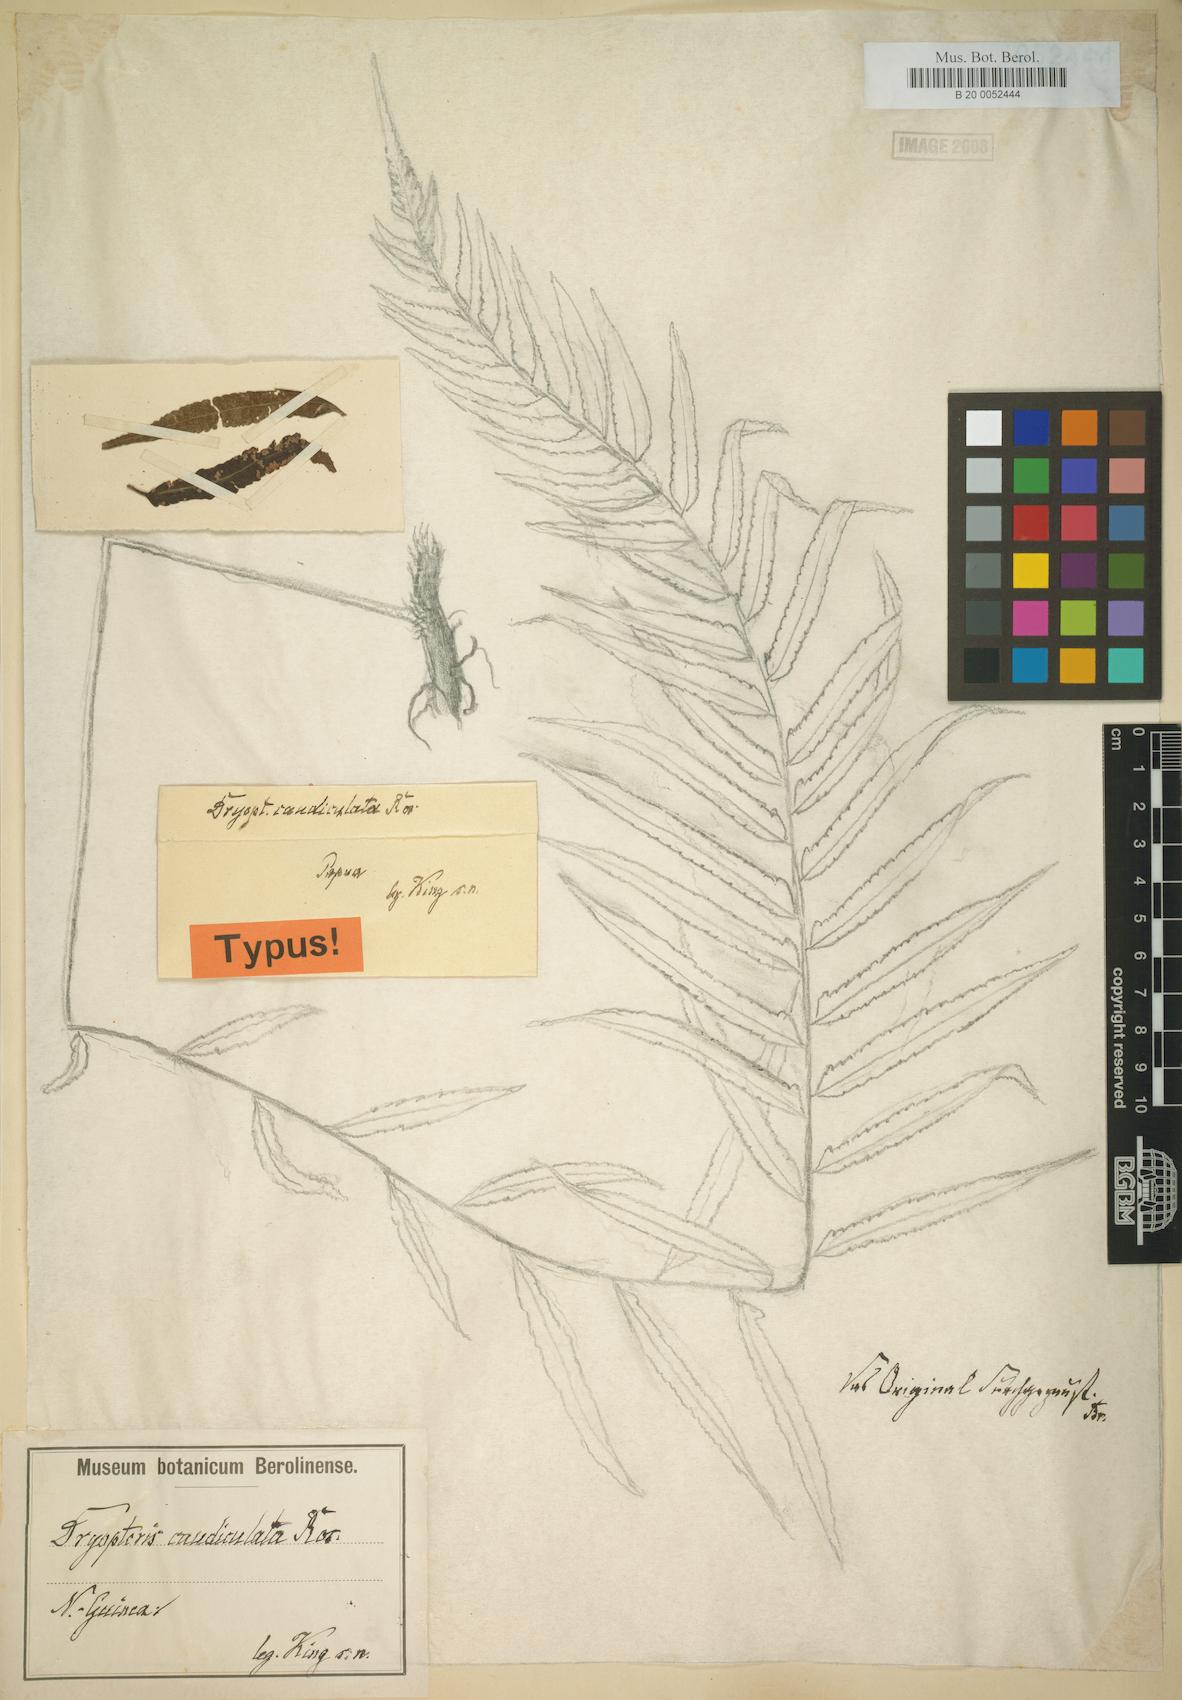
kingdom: Plantae
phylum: Tracheophyta
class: Polypodiopsida
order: Polypodiales
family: Thelypteridaceae
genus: Sphaerostephanos
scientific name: Sphaerostephanos aquatilis
